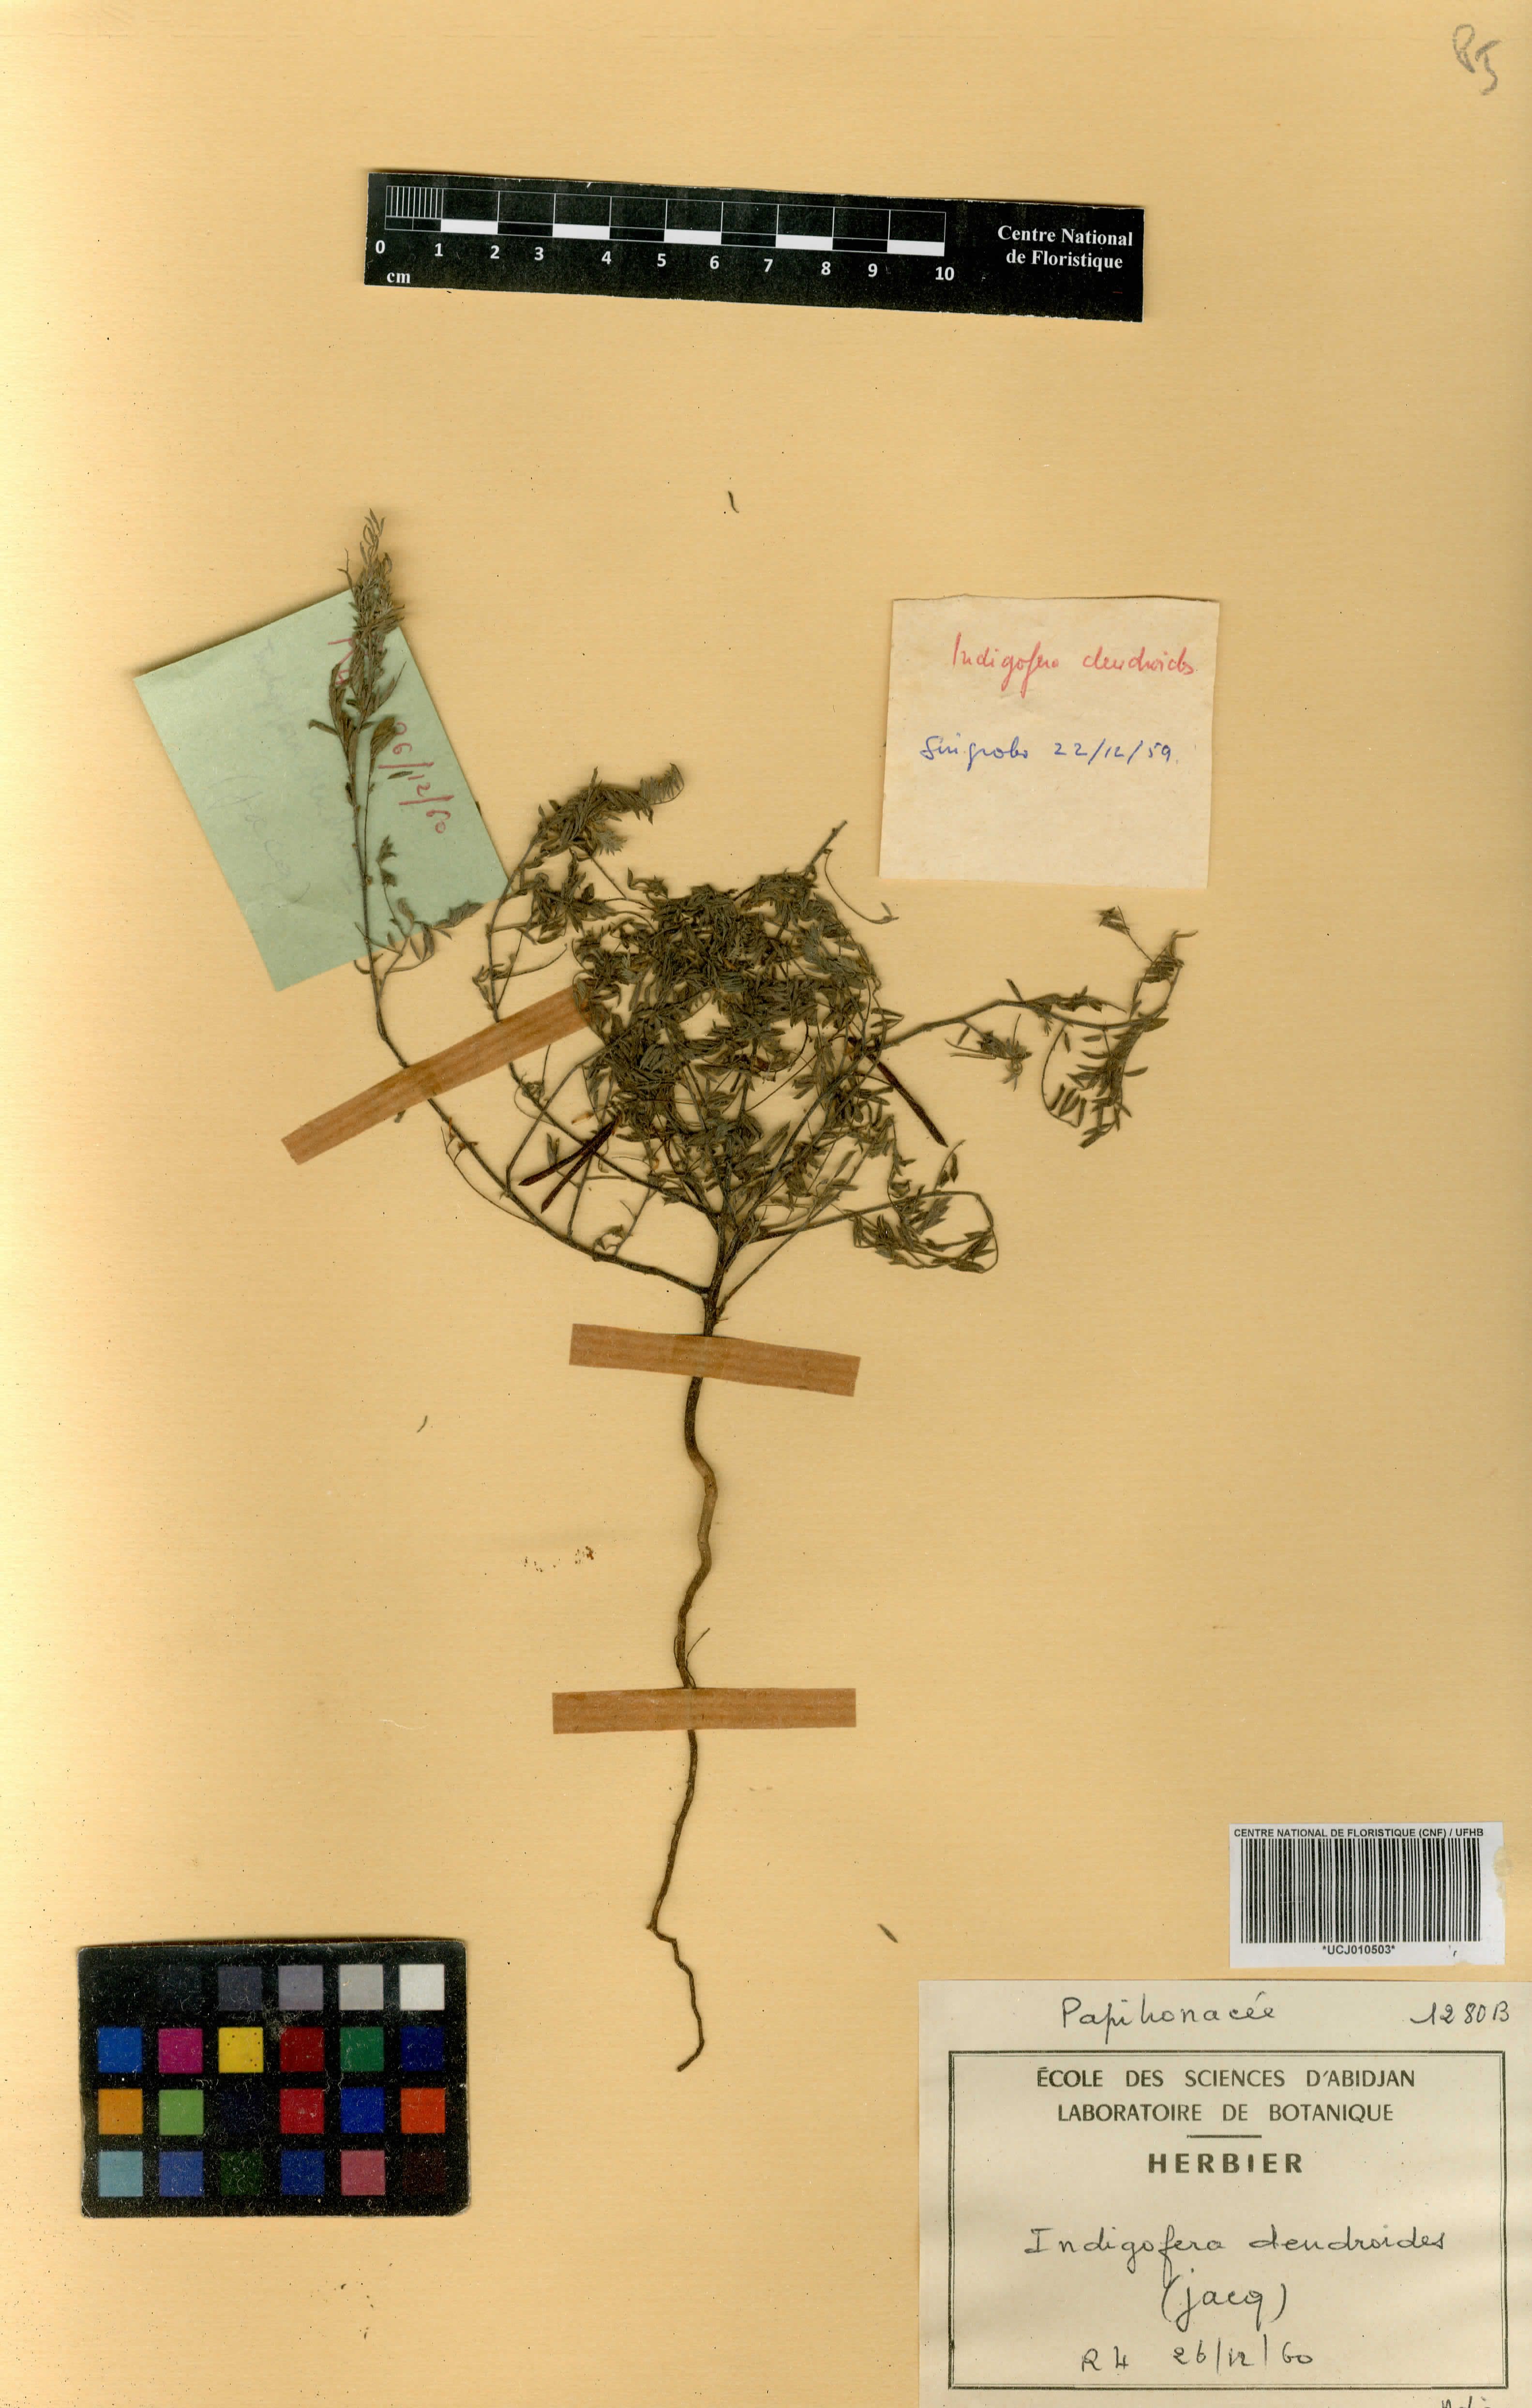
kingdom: Plantae
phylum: Tracheophyta
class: Magnoliopsida
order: Fabales
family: Fabaceae
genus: Indigofera
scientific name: Indigofera dendroides
